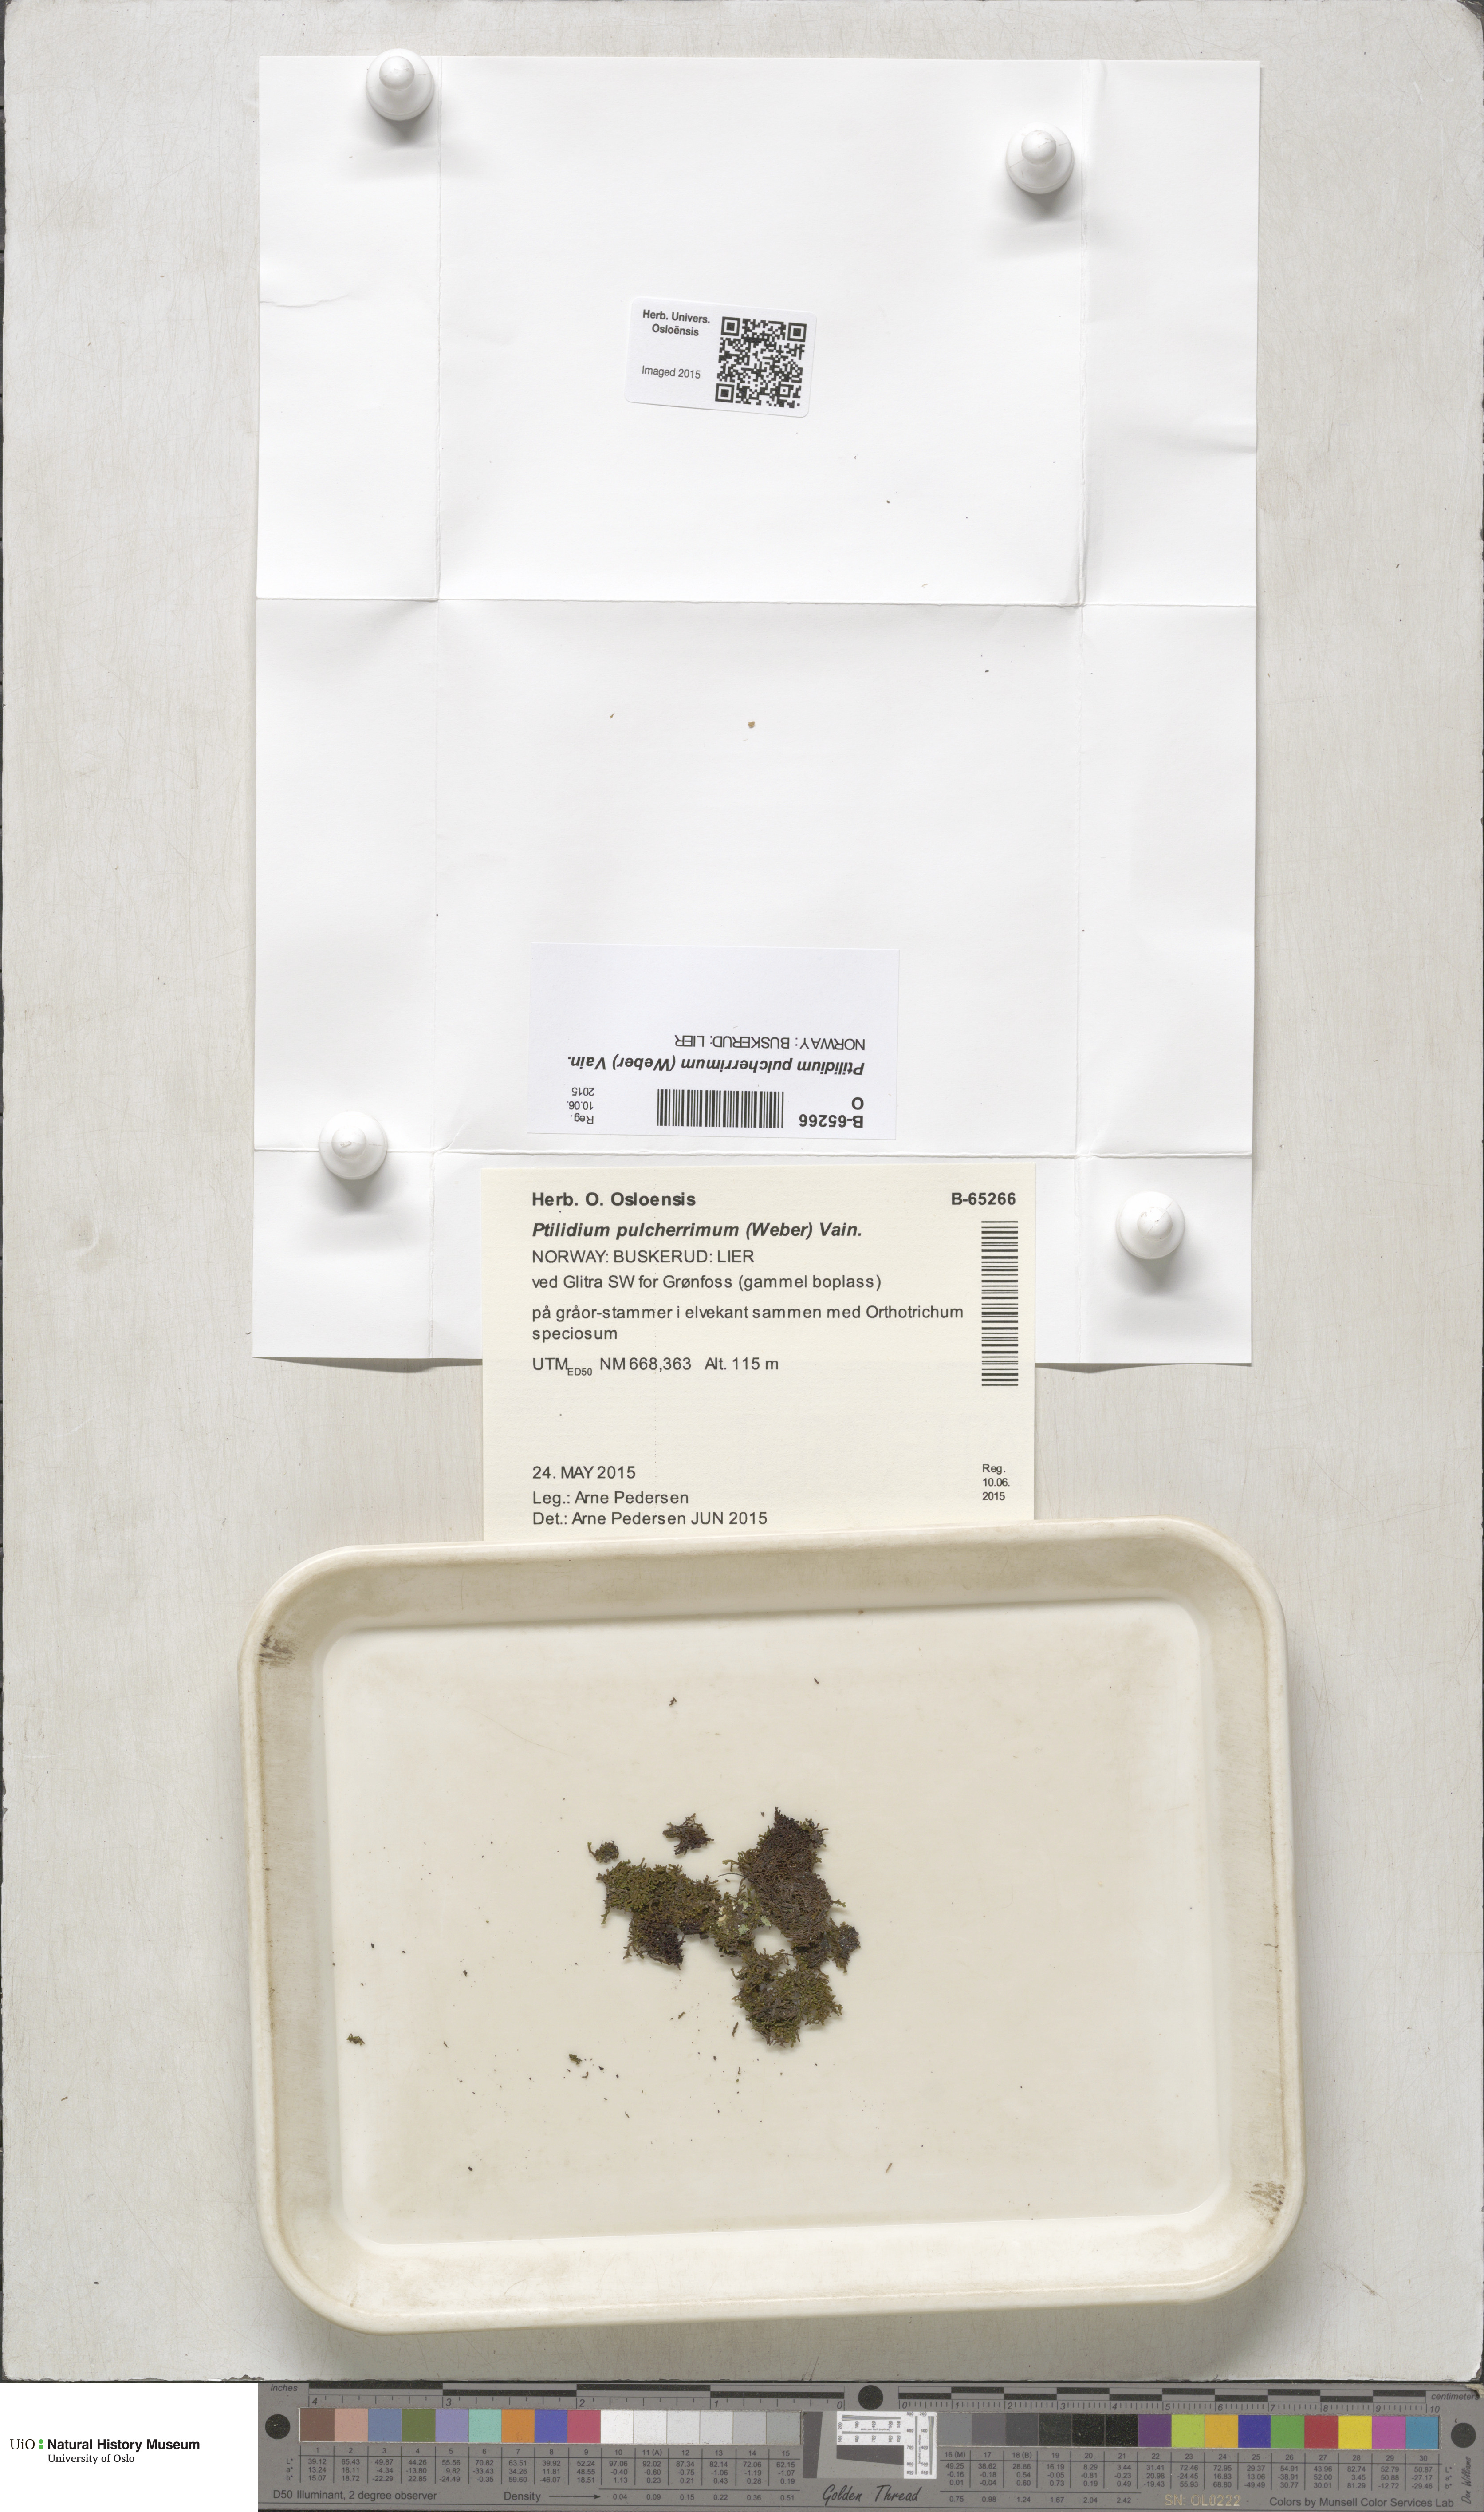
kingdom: Plantae
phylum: Marchantiophyta
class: Jungermanniopsida
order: Ptilidiales
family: Ptilidiaceae
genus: Ptilidium
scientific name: Ptilidium pulcherrimum
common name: Tree fringewort
